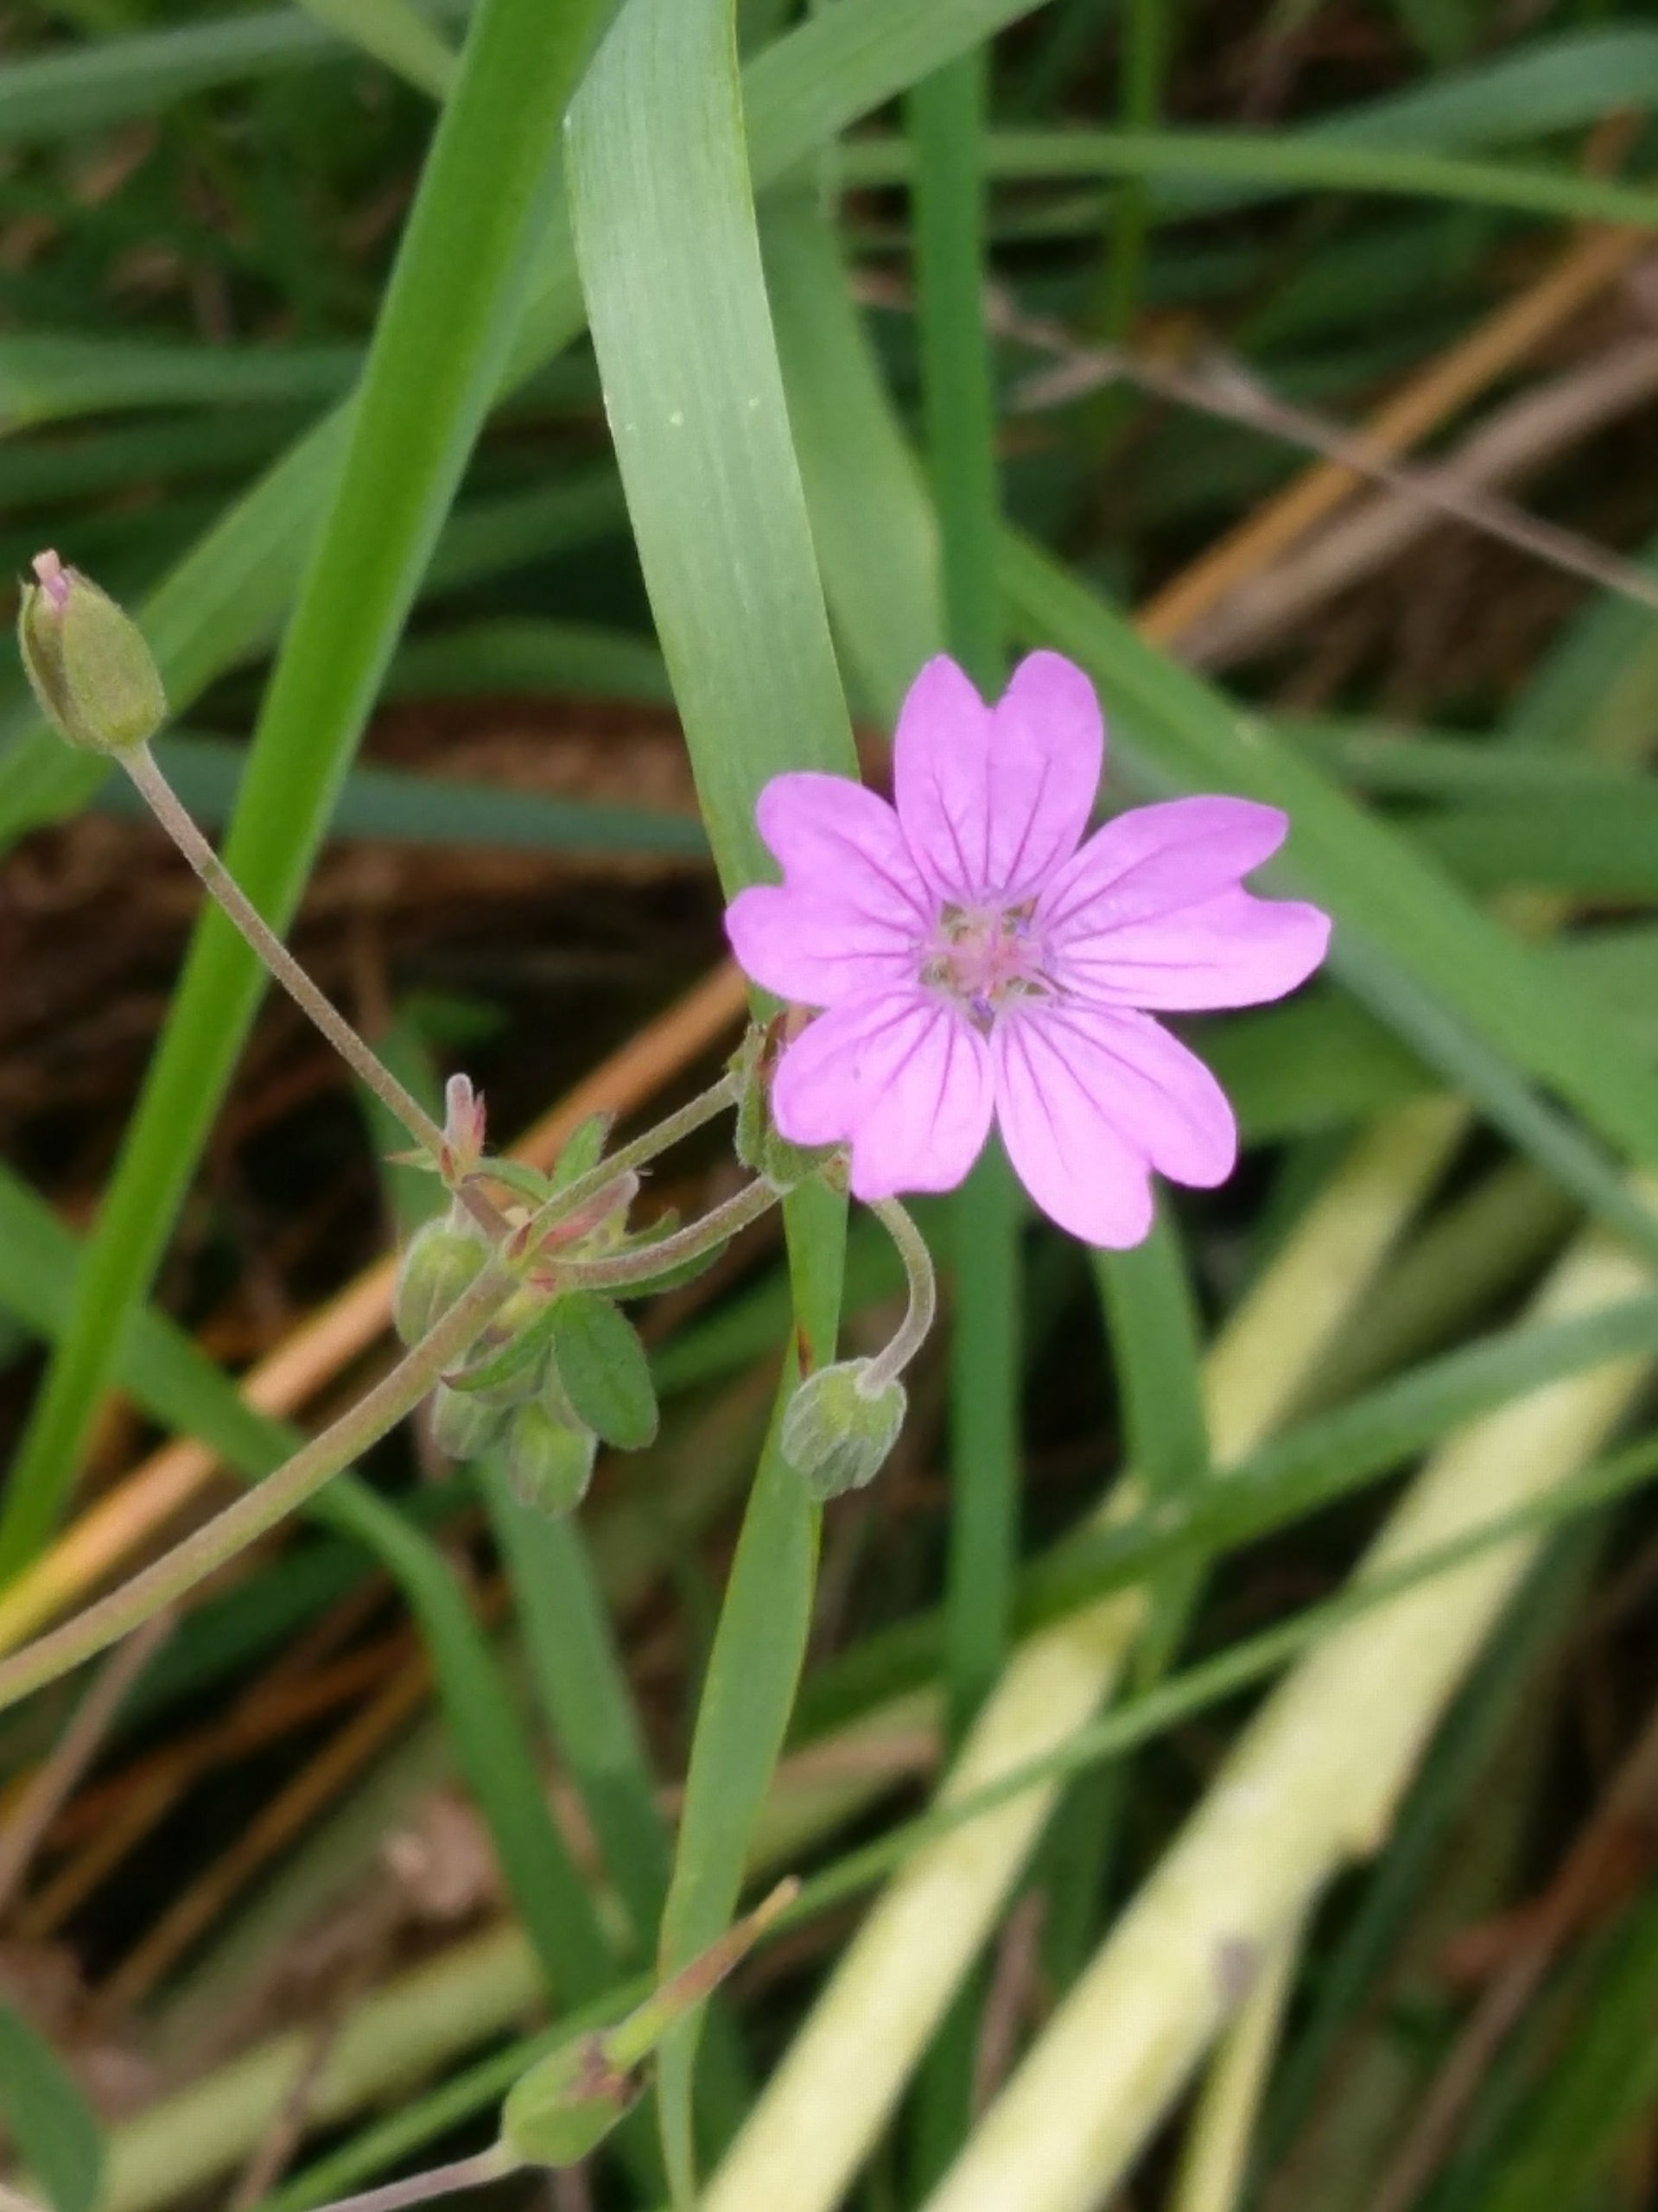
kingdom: Plantae
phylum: Tracheophyta
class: Magnoliopsida
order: Geraniales
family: Geraniaceae
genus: Geranium
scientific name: Geranium pyrenaicum
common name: Pyrenæisk storkenæb
